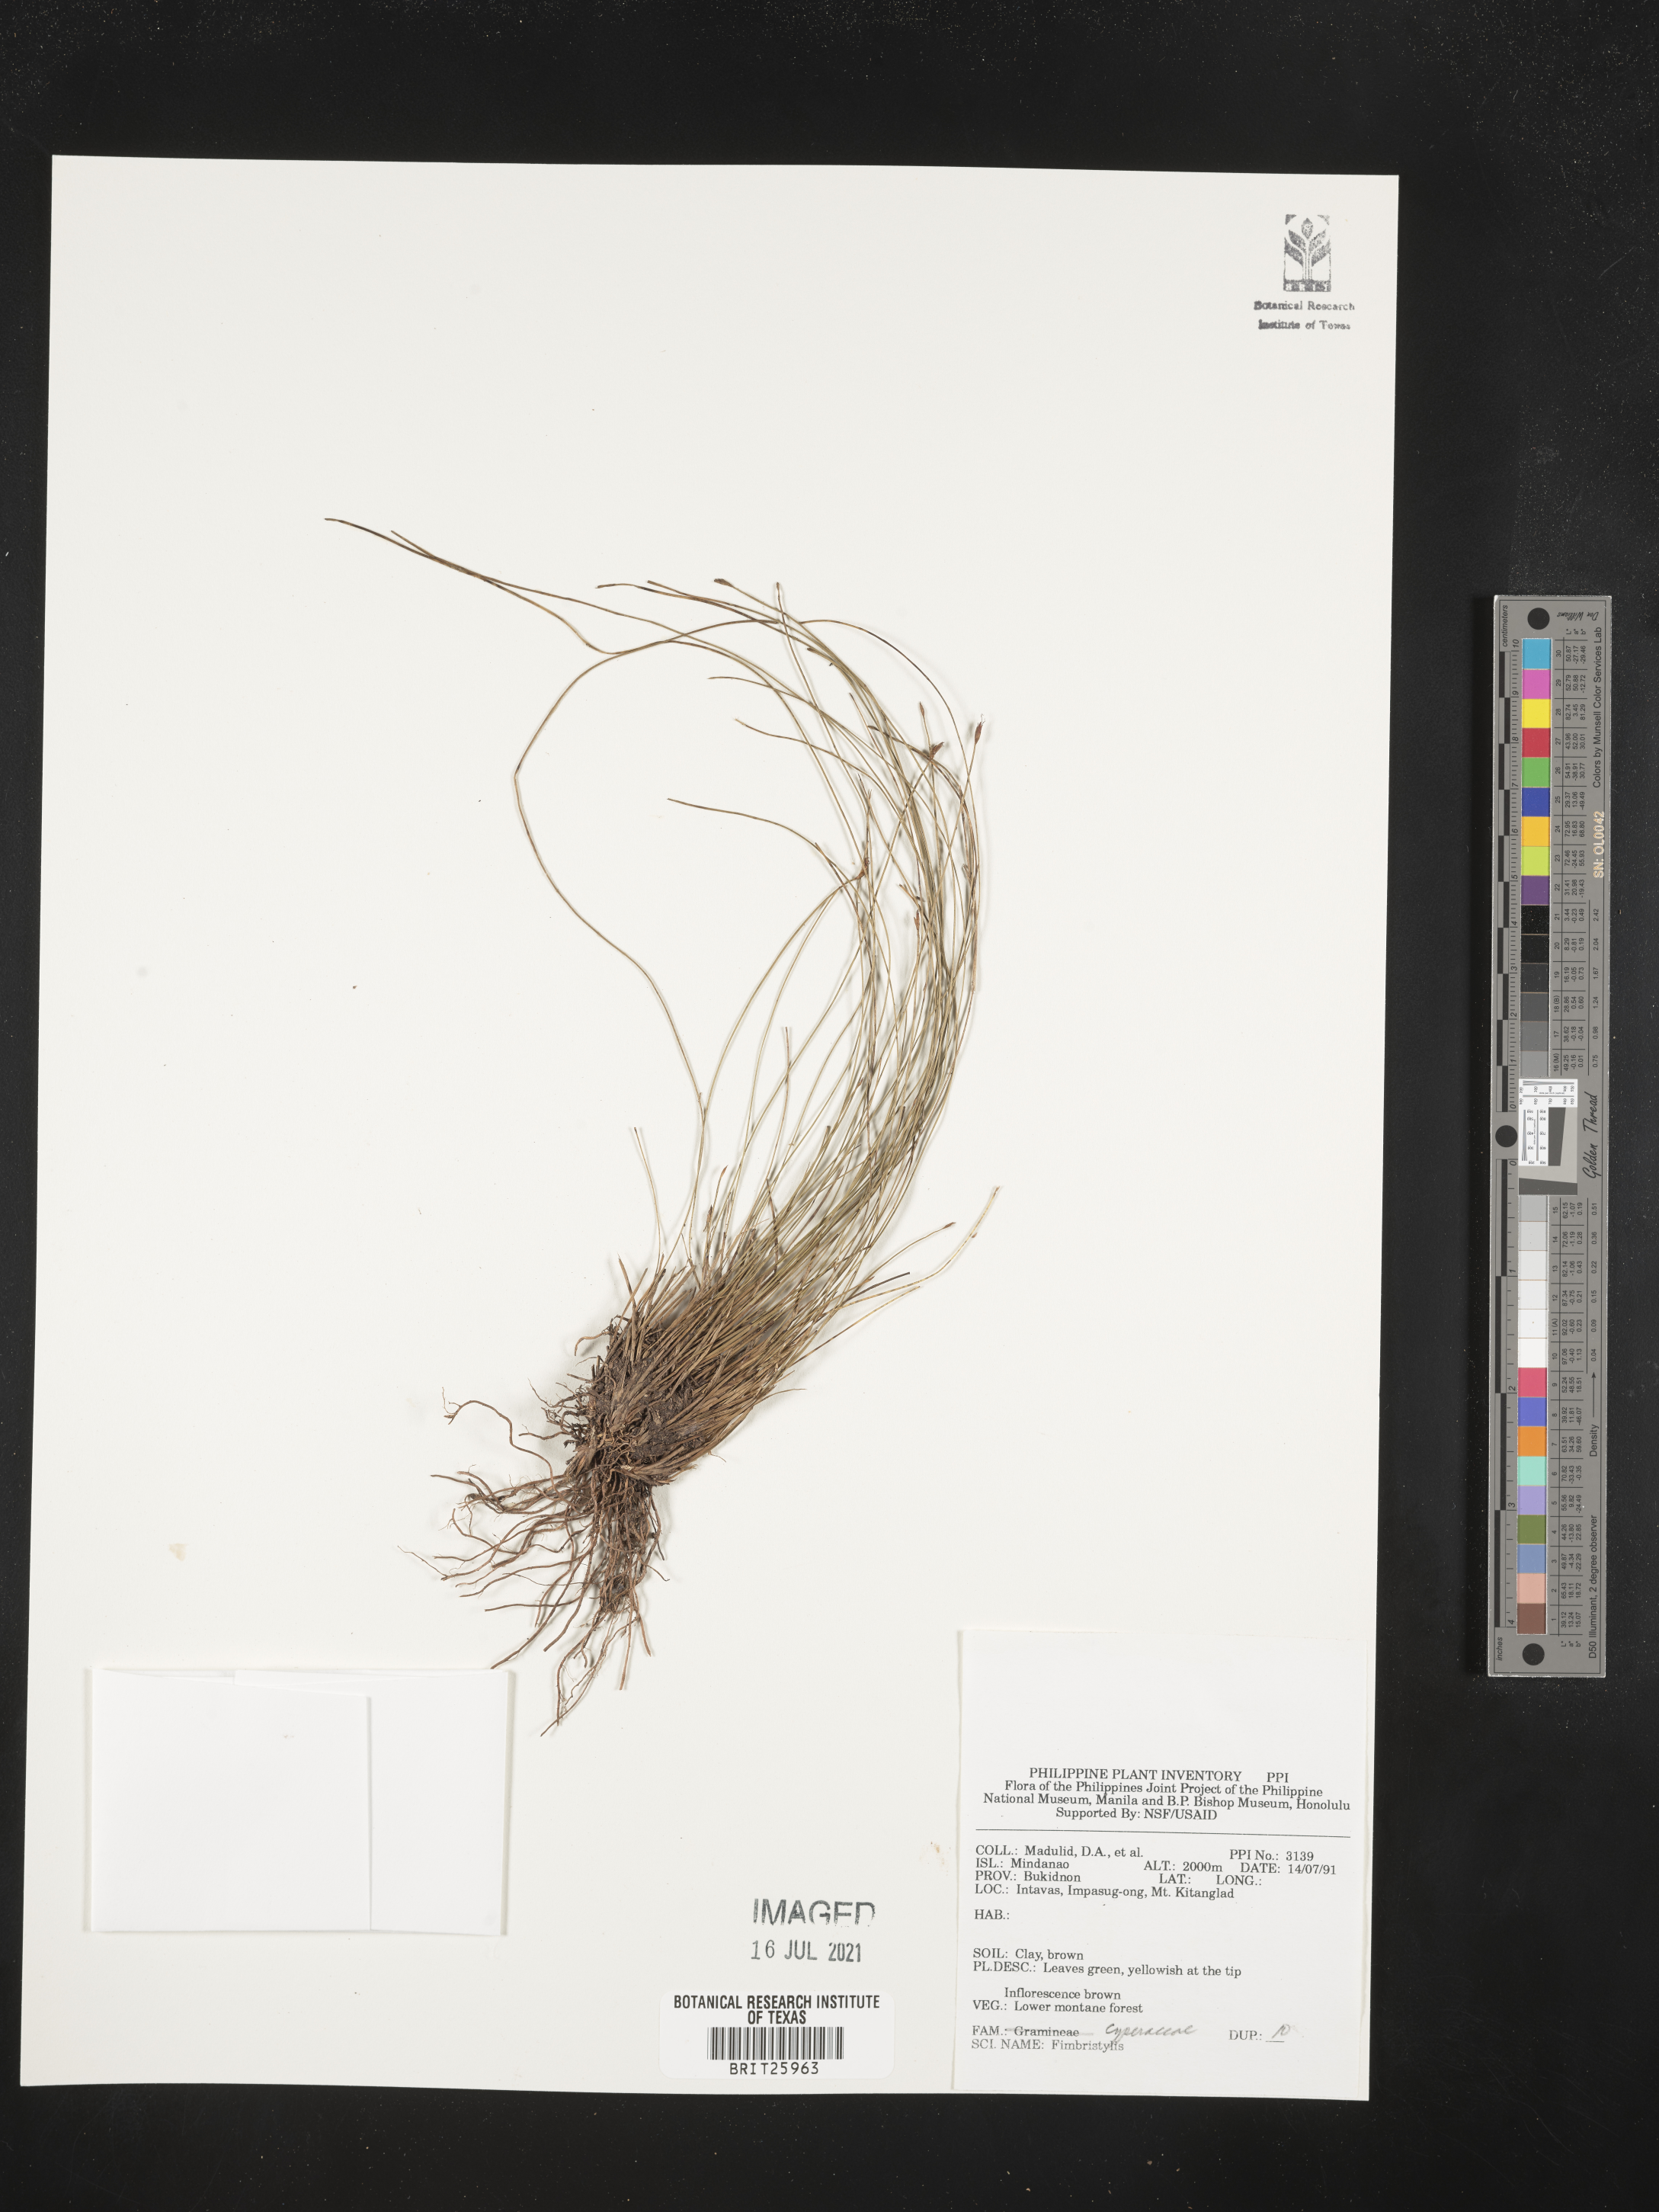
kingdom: Plantae
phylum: Tracheophyta
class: Liliopsida
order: Poales
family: Cyperaceae
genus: Fimbristylis
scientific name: Fimbristylis
